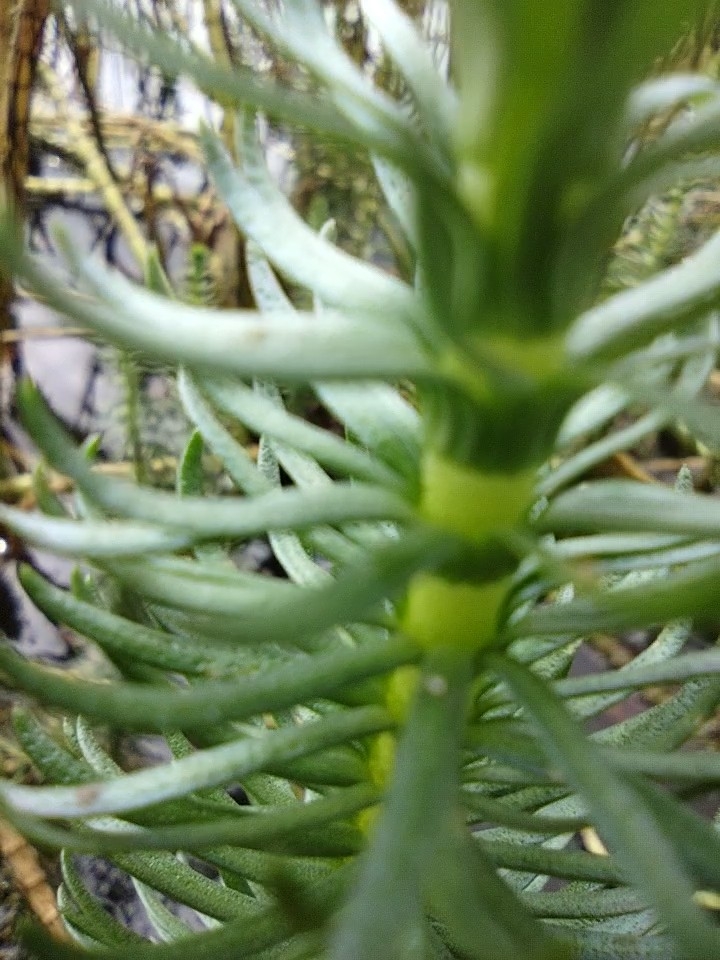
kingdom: Plantae
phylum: Tracheophyta
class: Magnoliopsida
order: Lamiales
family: Plantaginaceae
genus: Hippuris
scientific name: Hippuris vulgaris
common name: Vandspir
